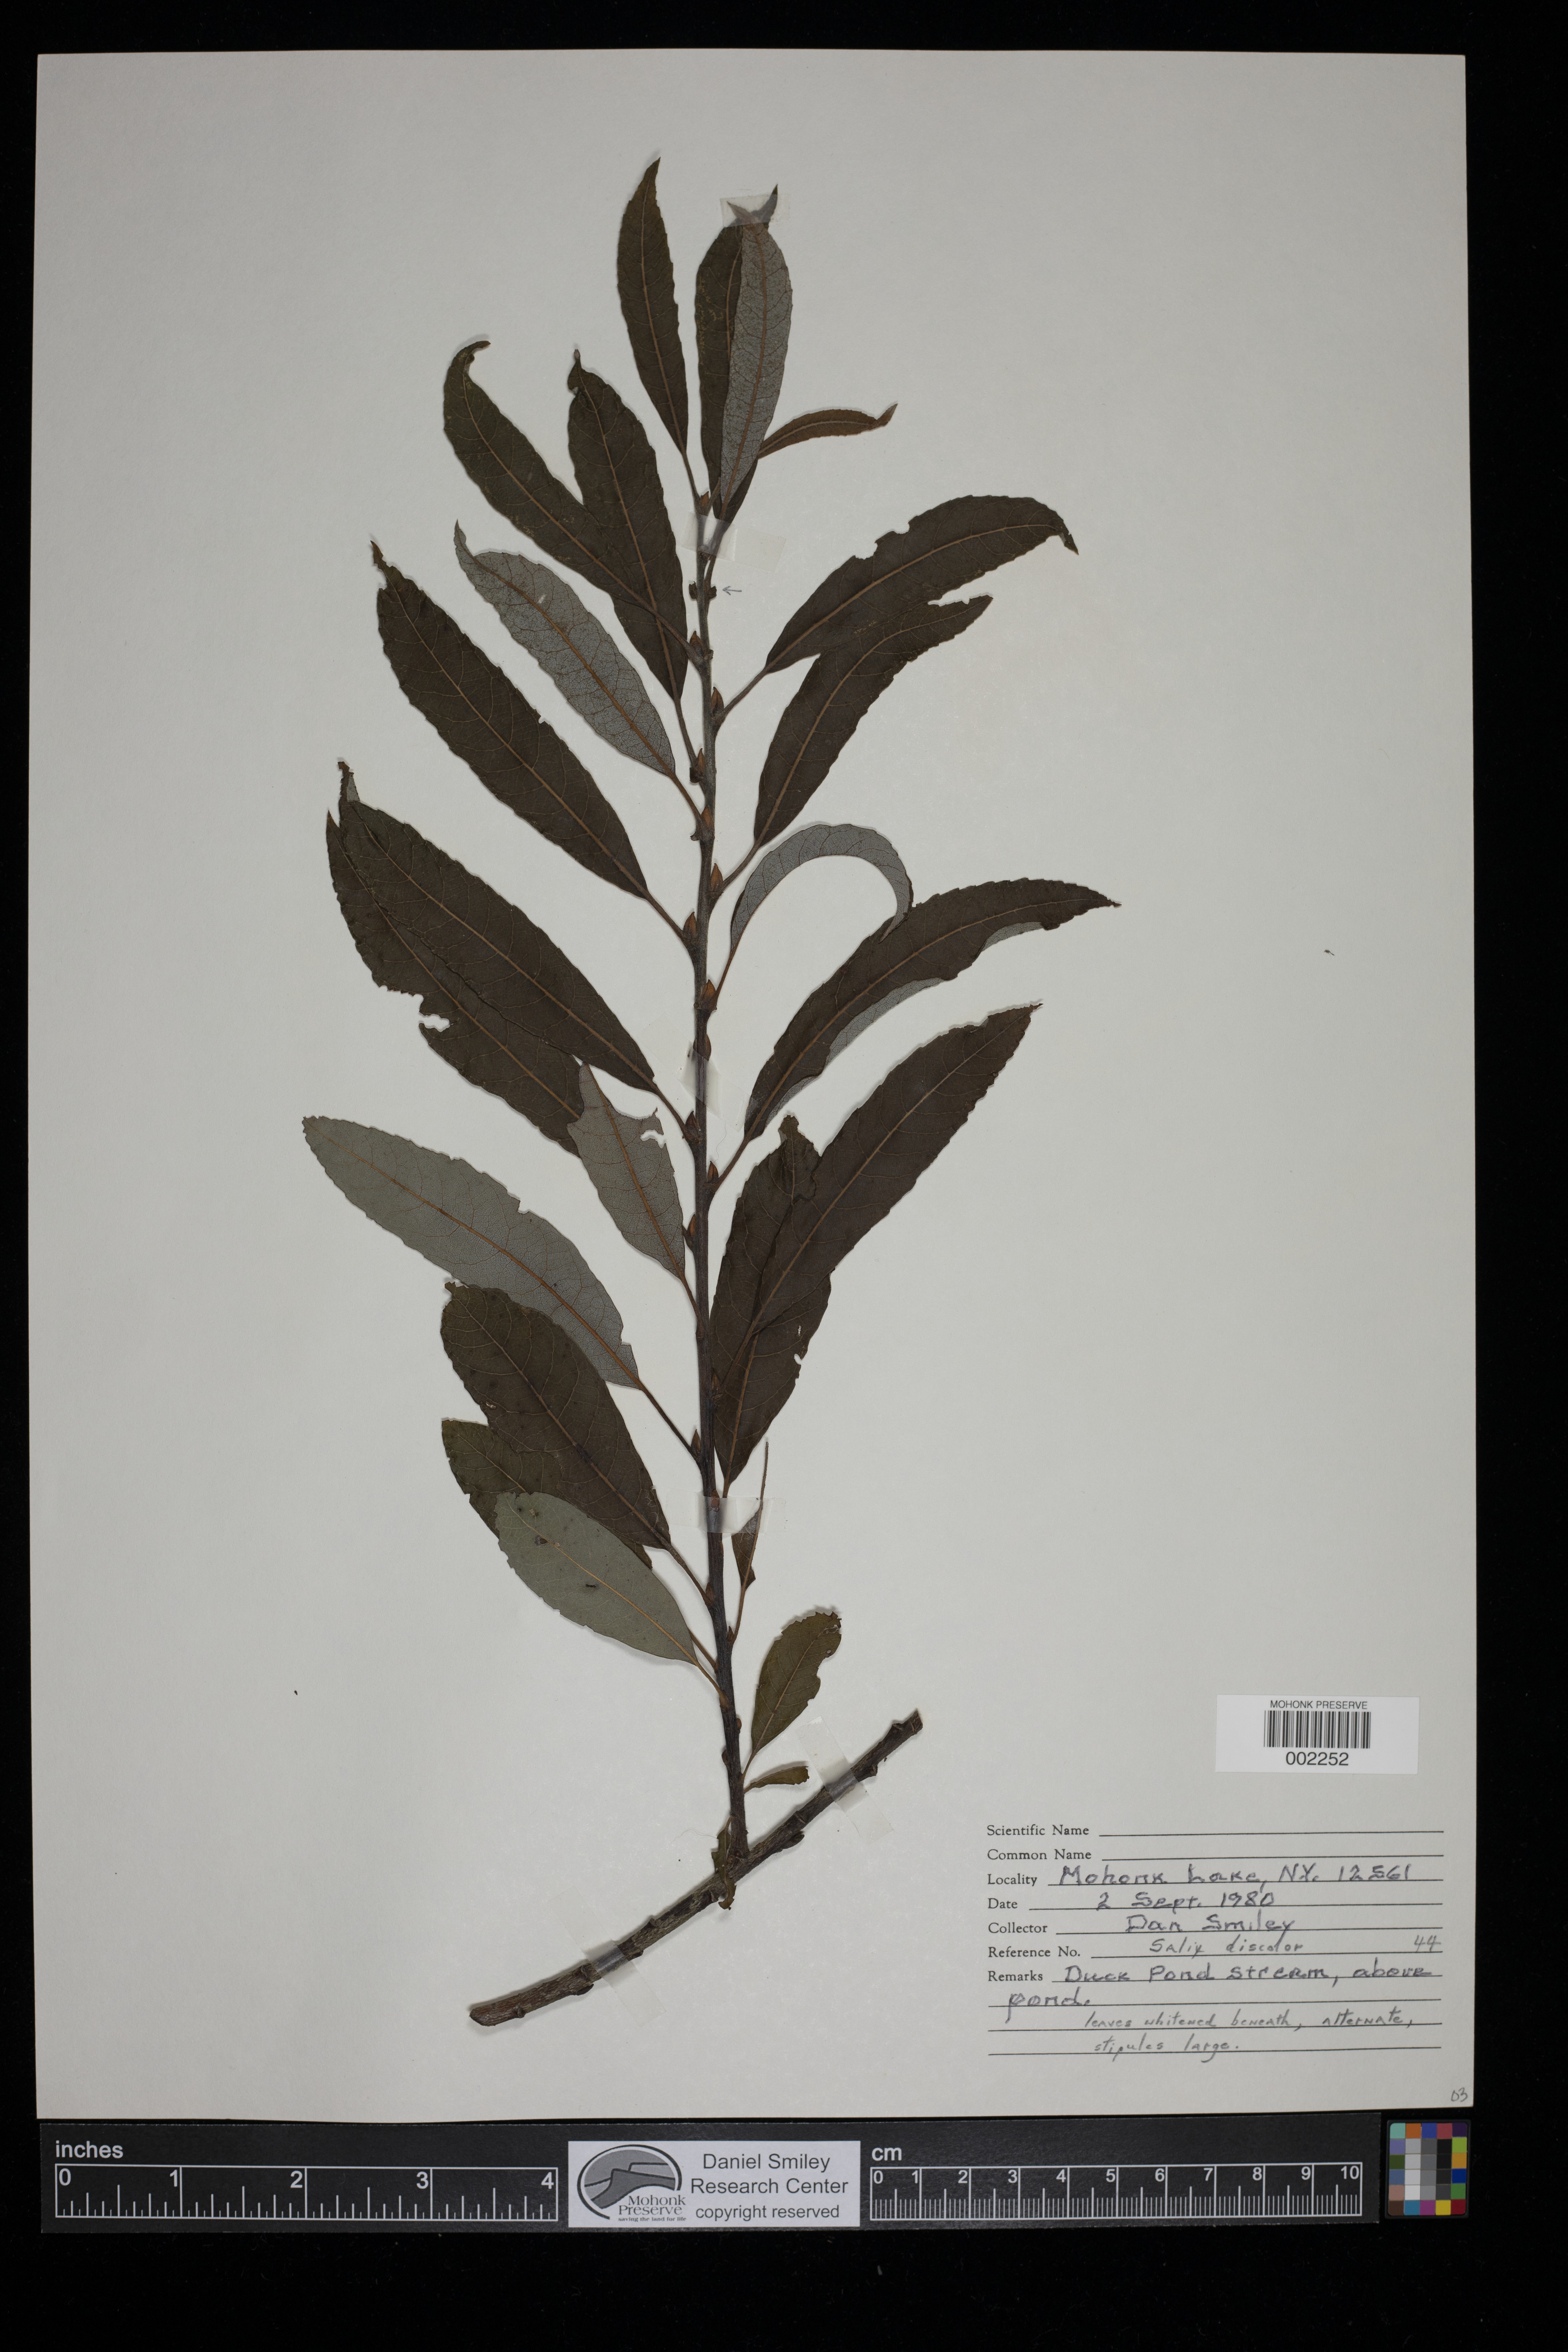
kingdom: Plantae
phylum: Tracheophyta
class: Magnoliopsida
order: Malpighiales
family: Salicaceae
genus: Salix
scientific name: Salix discolor
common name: Glaucous willow
